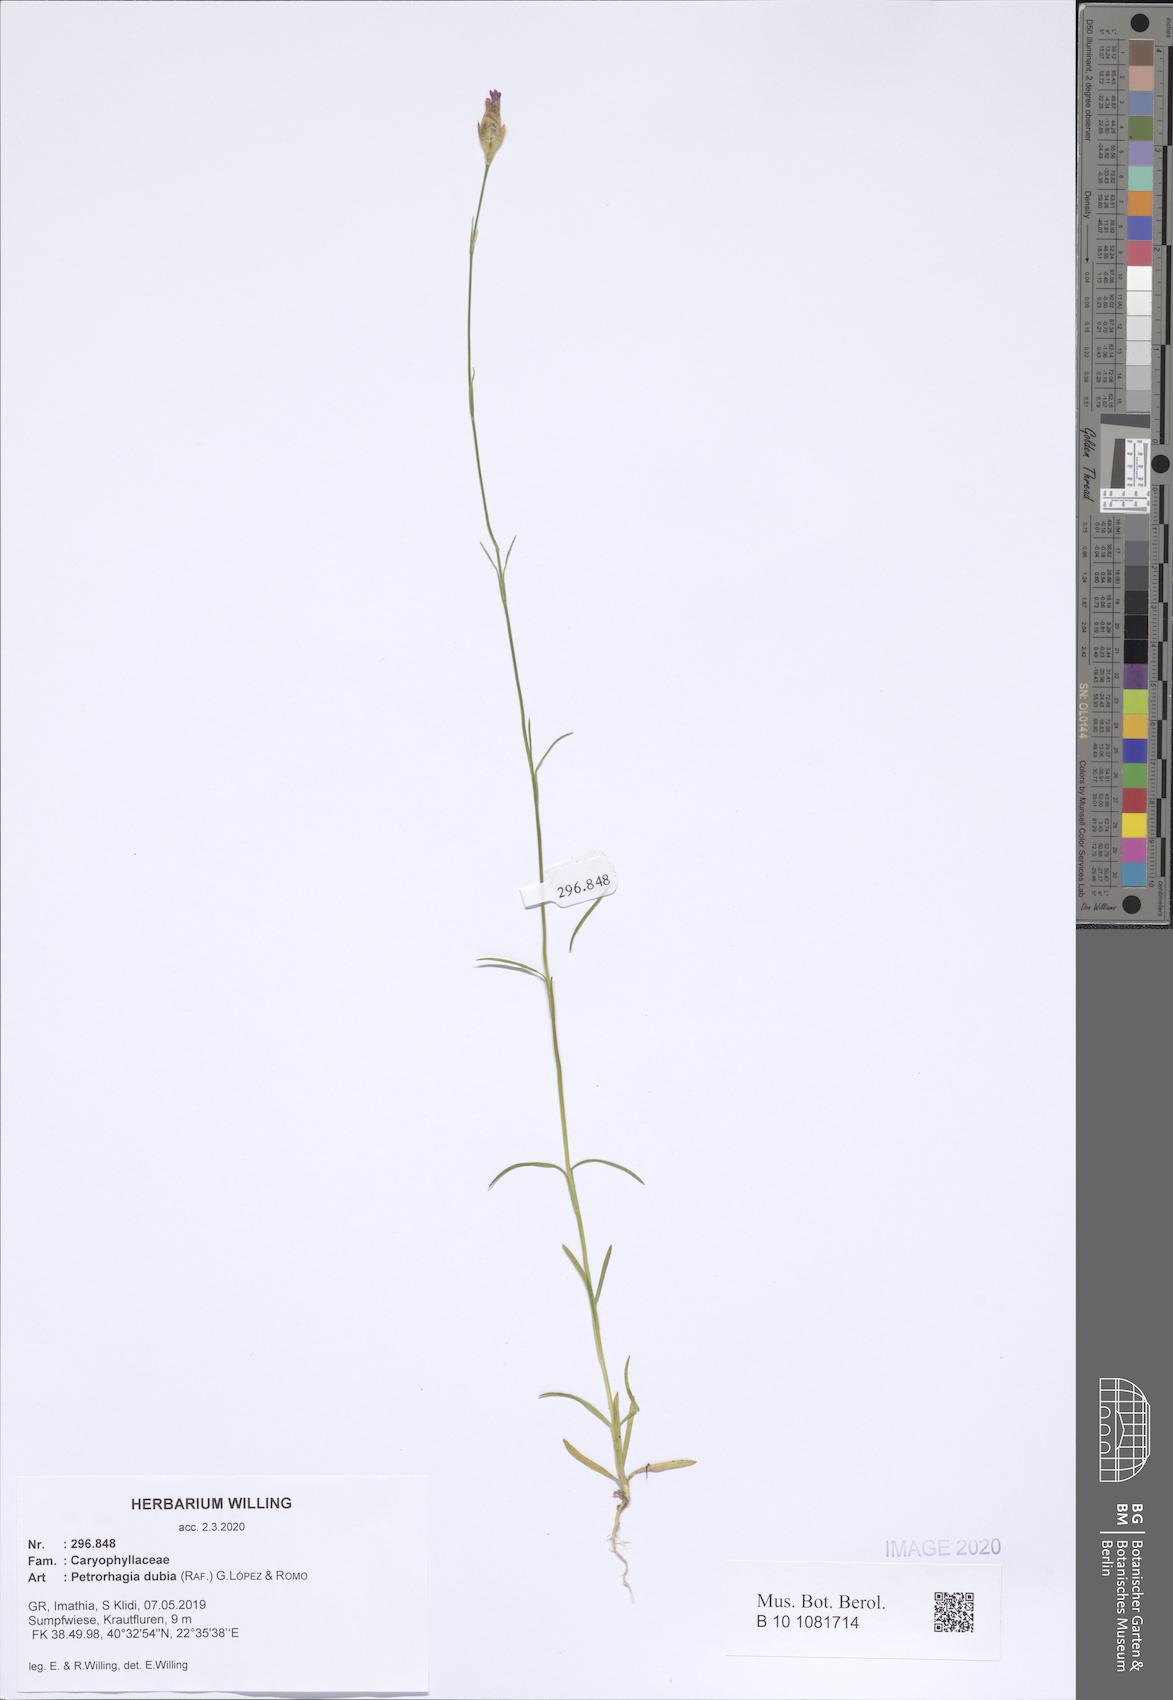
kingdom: Plantae
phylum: Tracheophyta
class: Magnoliopsida
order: Caryophyllales
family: Caryophyllaceae
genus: Petrorhagia
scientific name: Petrorhagia dubia
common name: Hairypink
